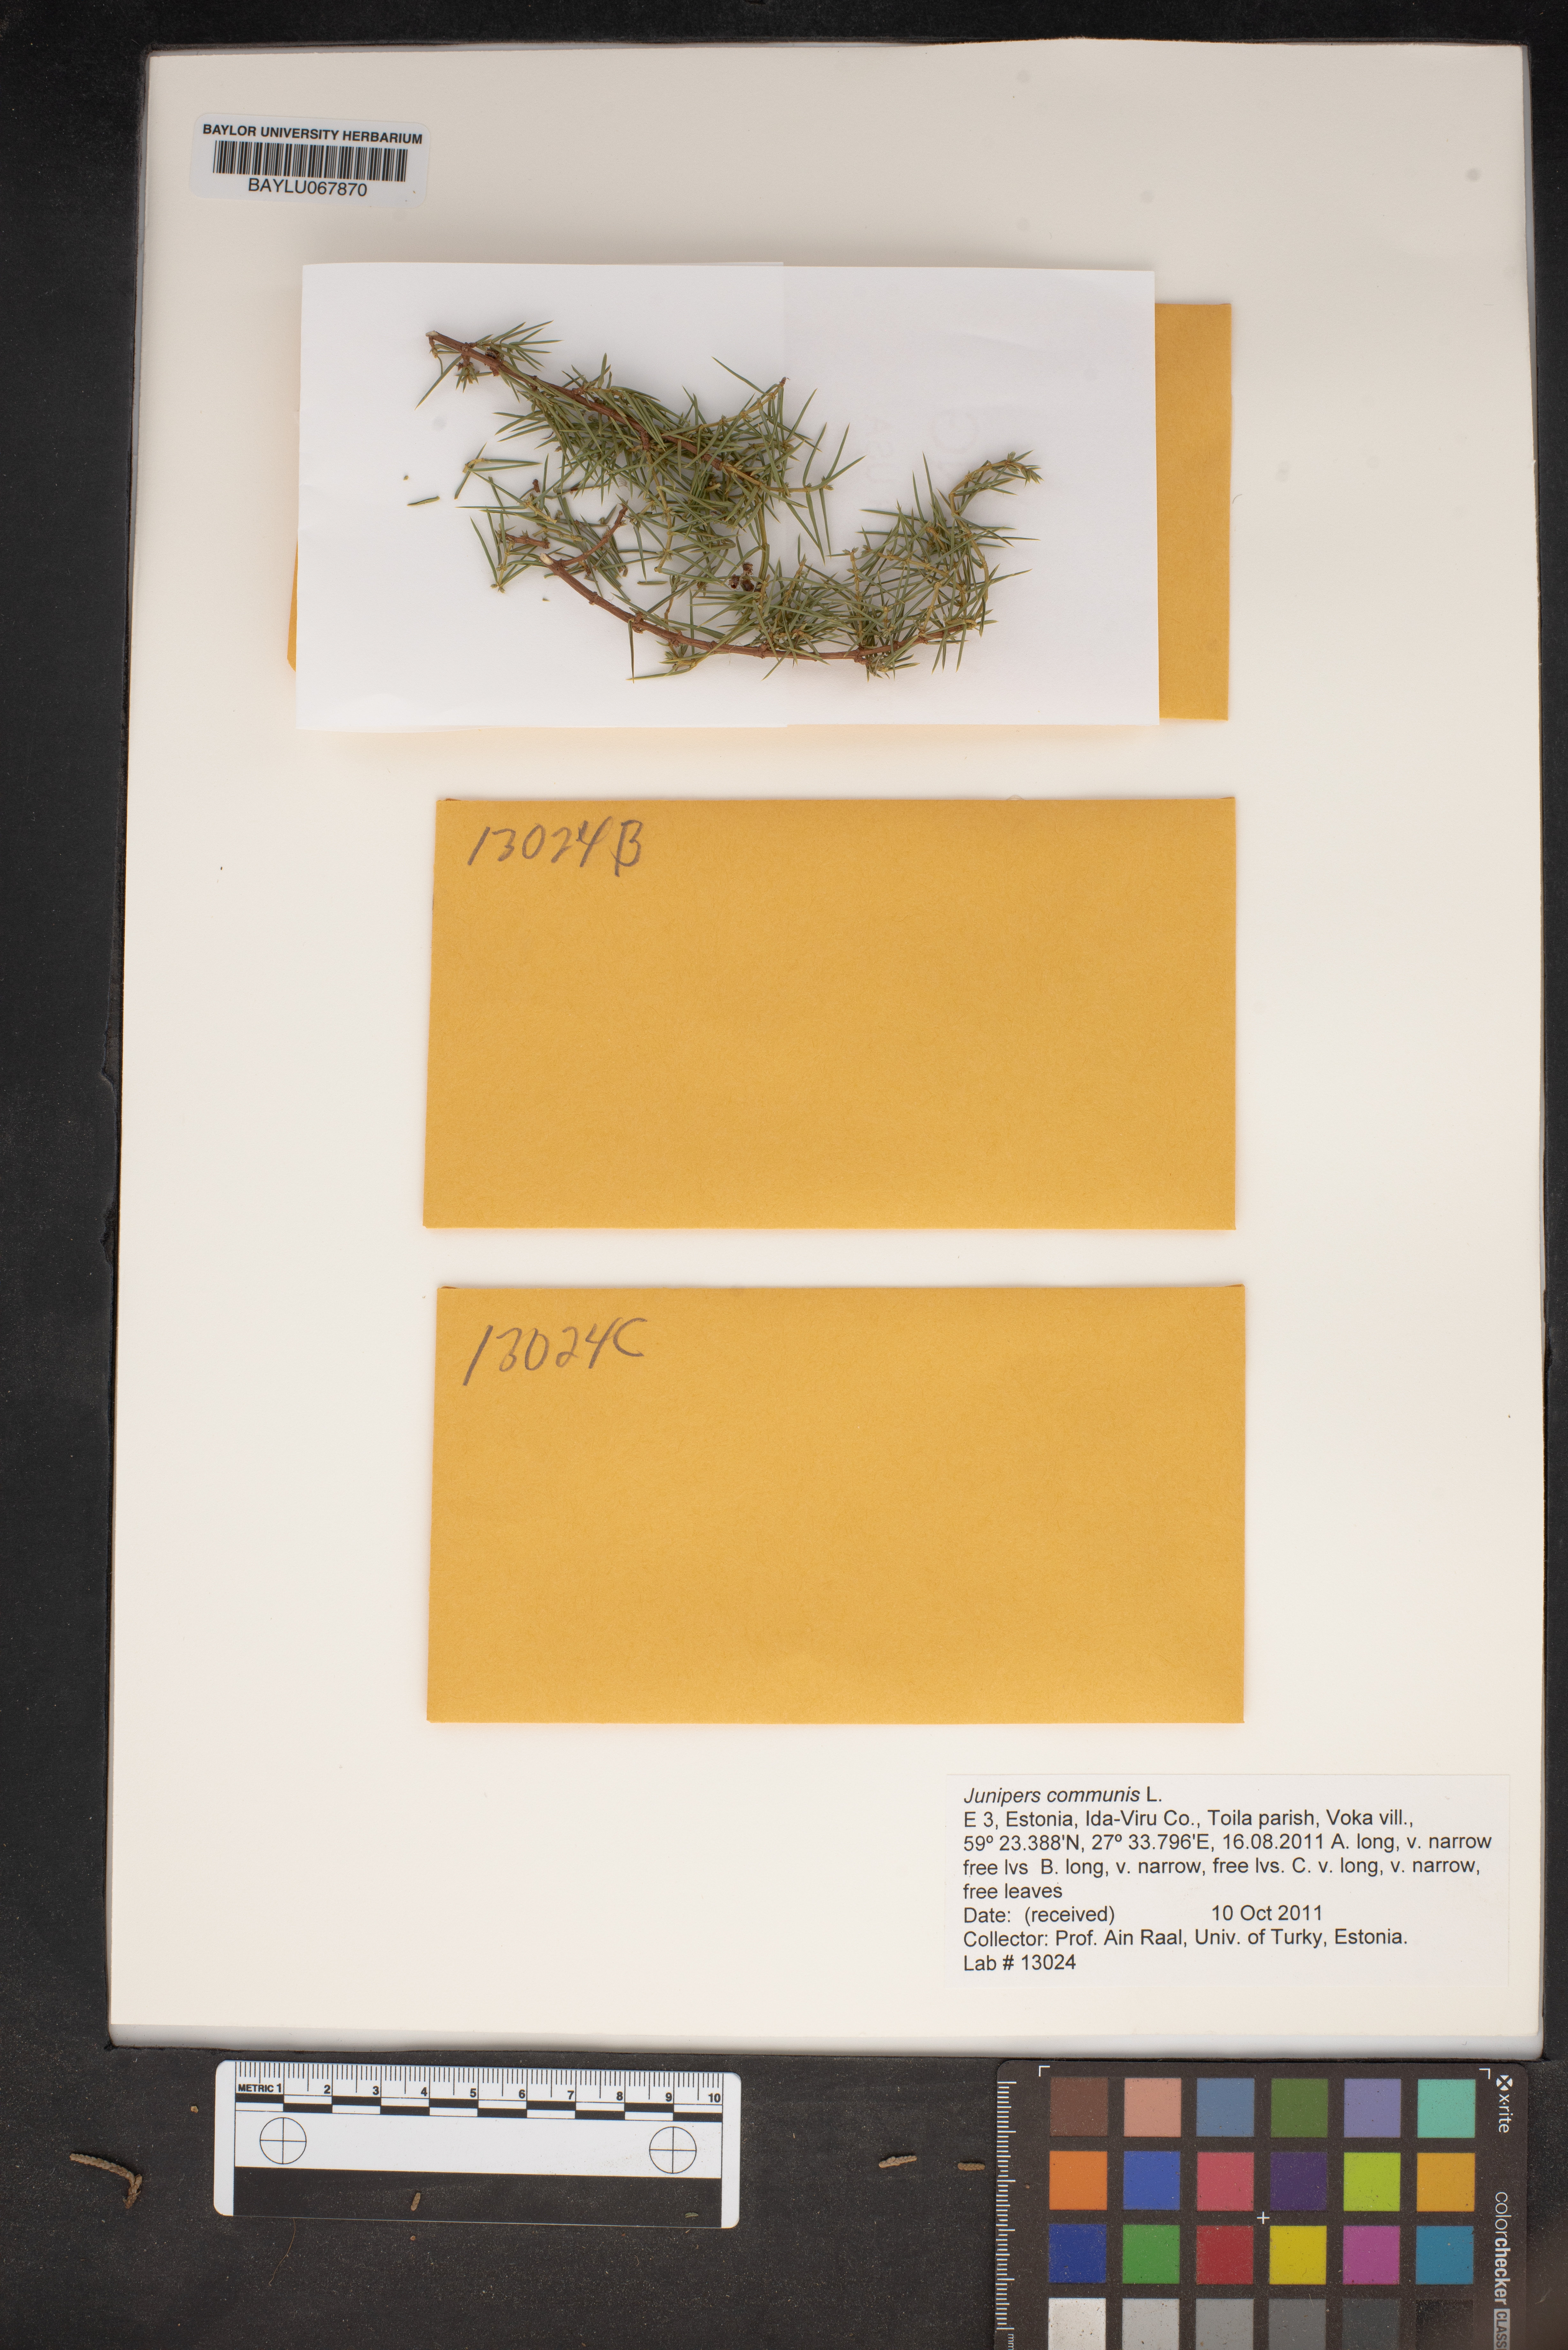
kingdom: Plantae
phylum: Tracheophyta
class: Pinopsida
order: Pinales
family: Cupressaceae
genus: Juniperus
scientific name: Juniperus communis
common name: Common juniper
